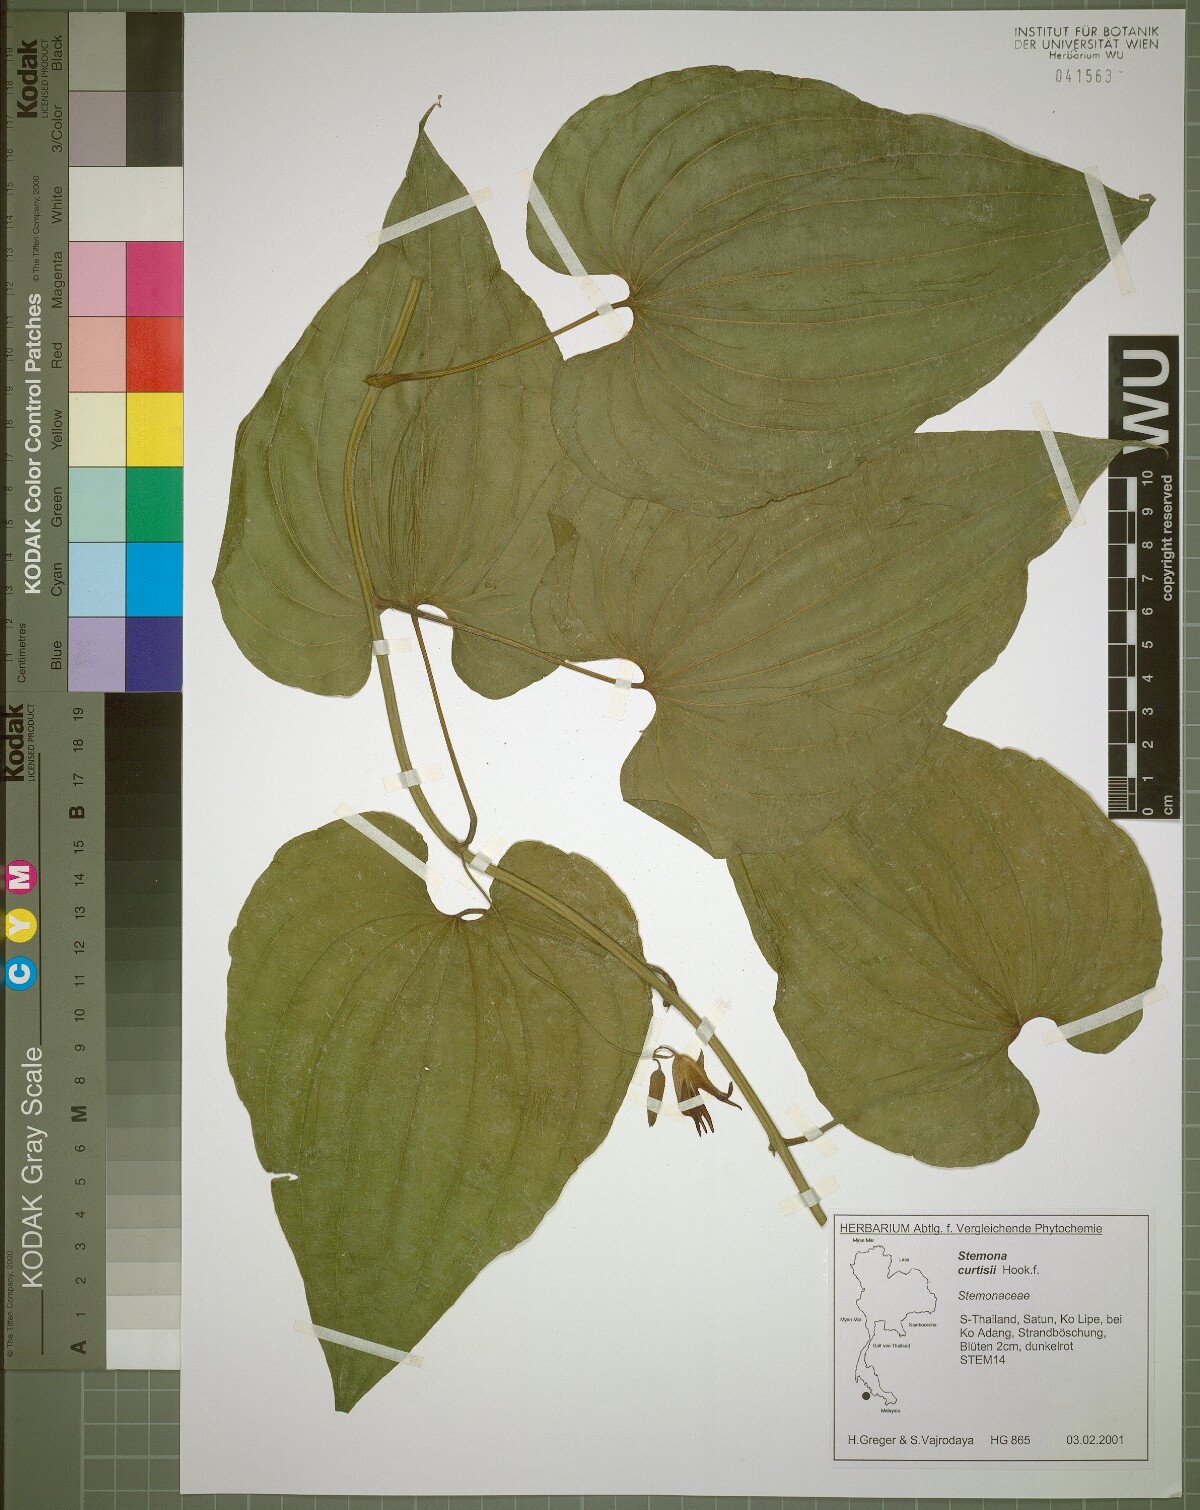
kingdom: Plantae
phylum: Tracheophyta
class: Liliopsida
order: Pandanales
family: Stemonaceae
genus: Stemona
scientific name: Stemona curtisii
